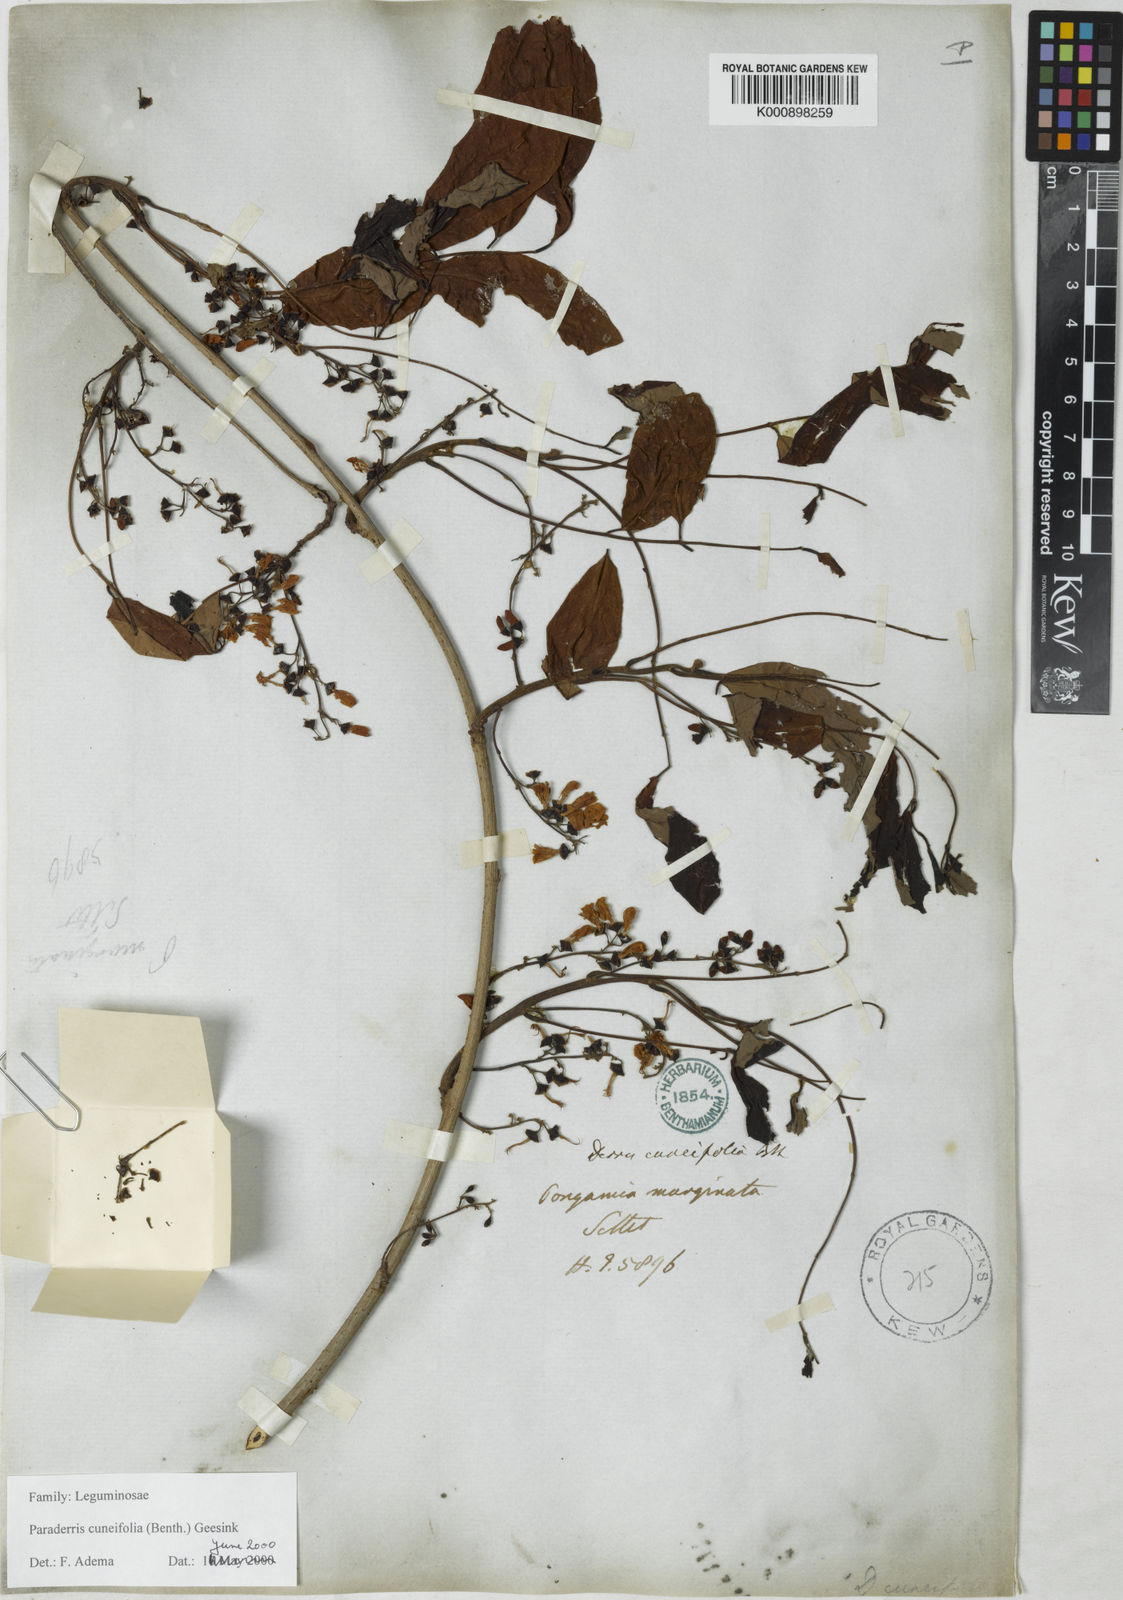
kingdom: Plantae
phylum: Tracheophyta
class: Magnoliopsida
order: Fabales
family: Fabaceae
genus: Derris
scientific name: Derris cuneifolia
